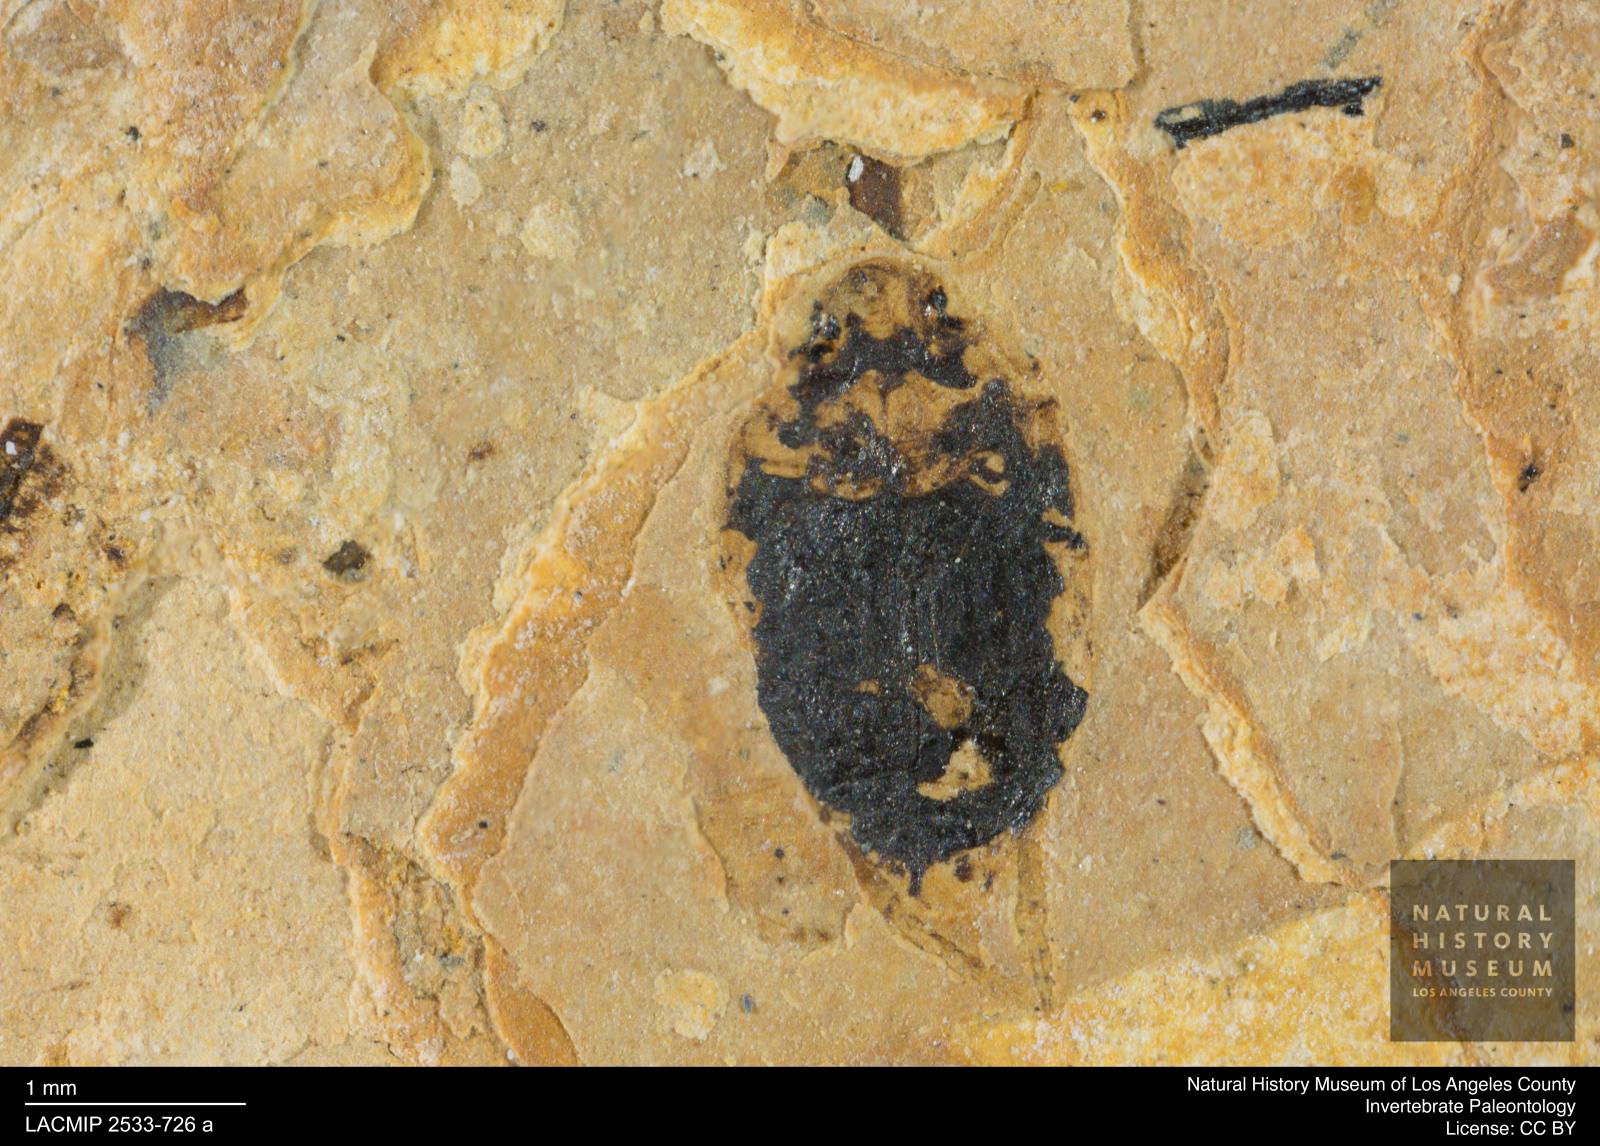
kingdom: Animalia
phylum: Arthropoda
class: Insecta
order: Coleoptera
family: Dytiscidae
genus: Oreodytes
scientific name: Oreodytes cryptolineatus
